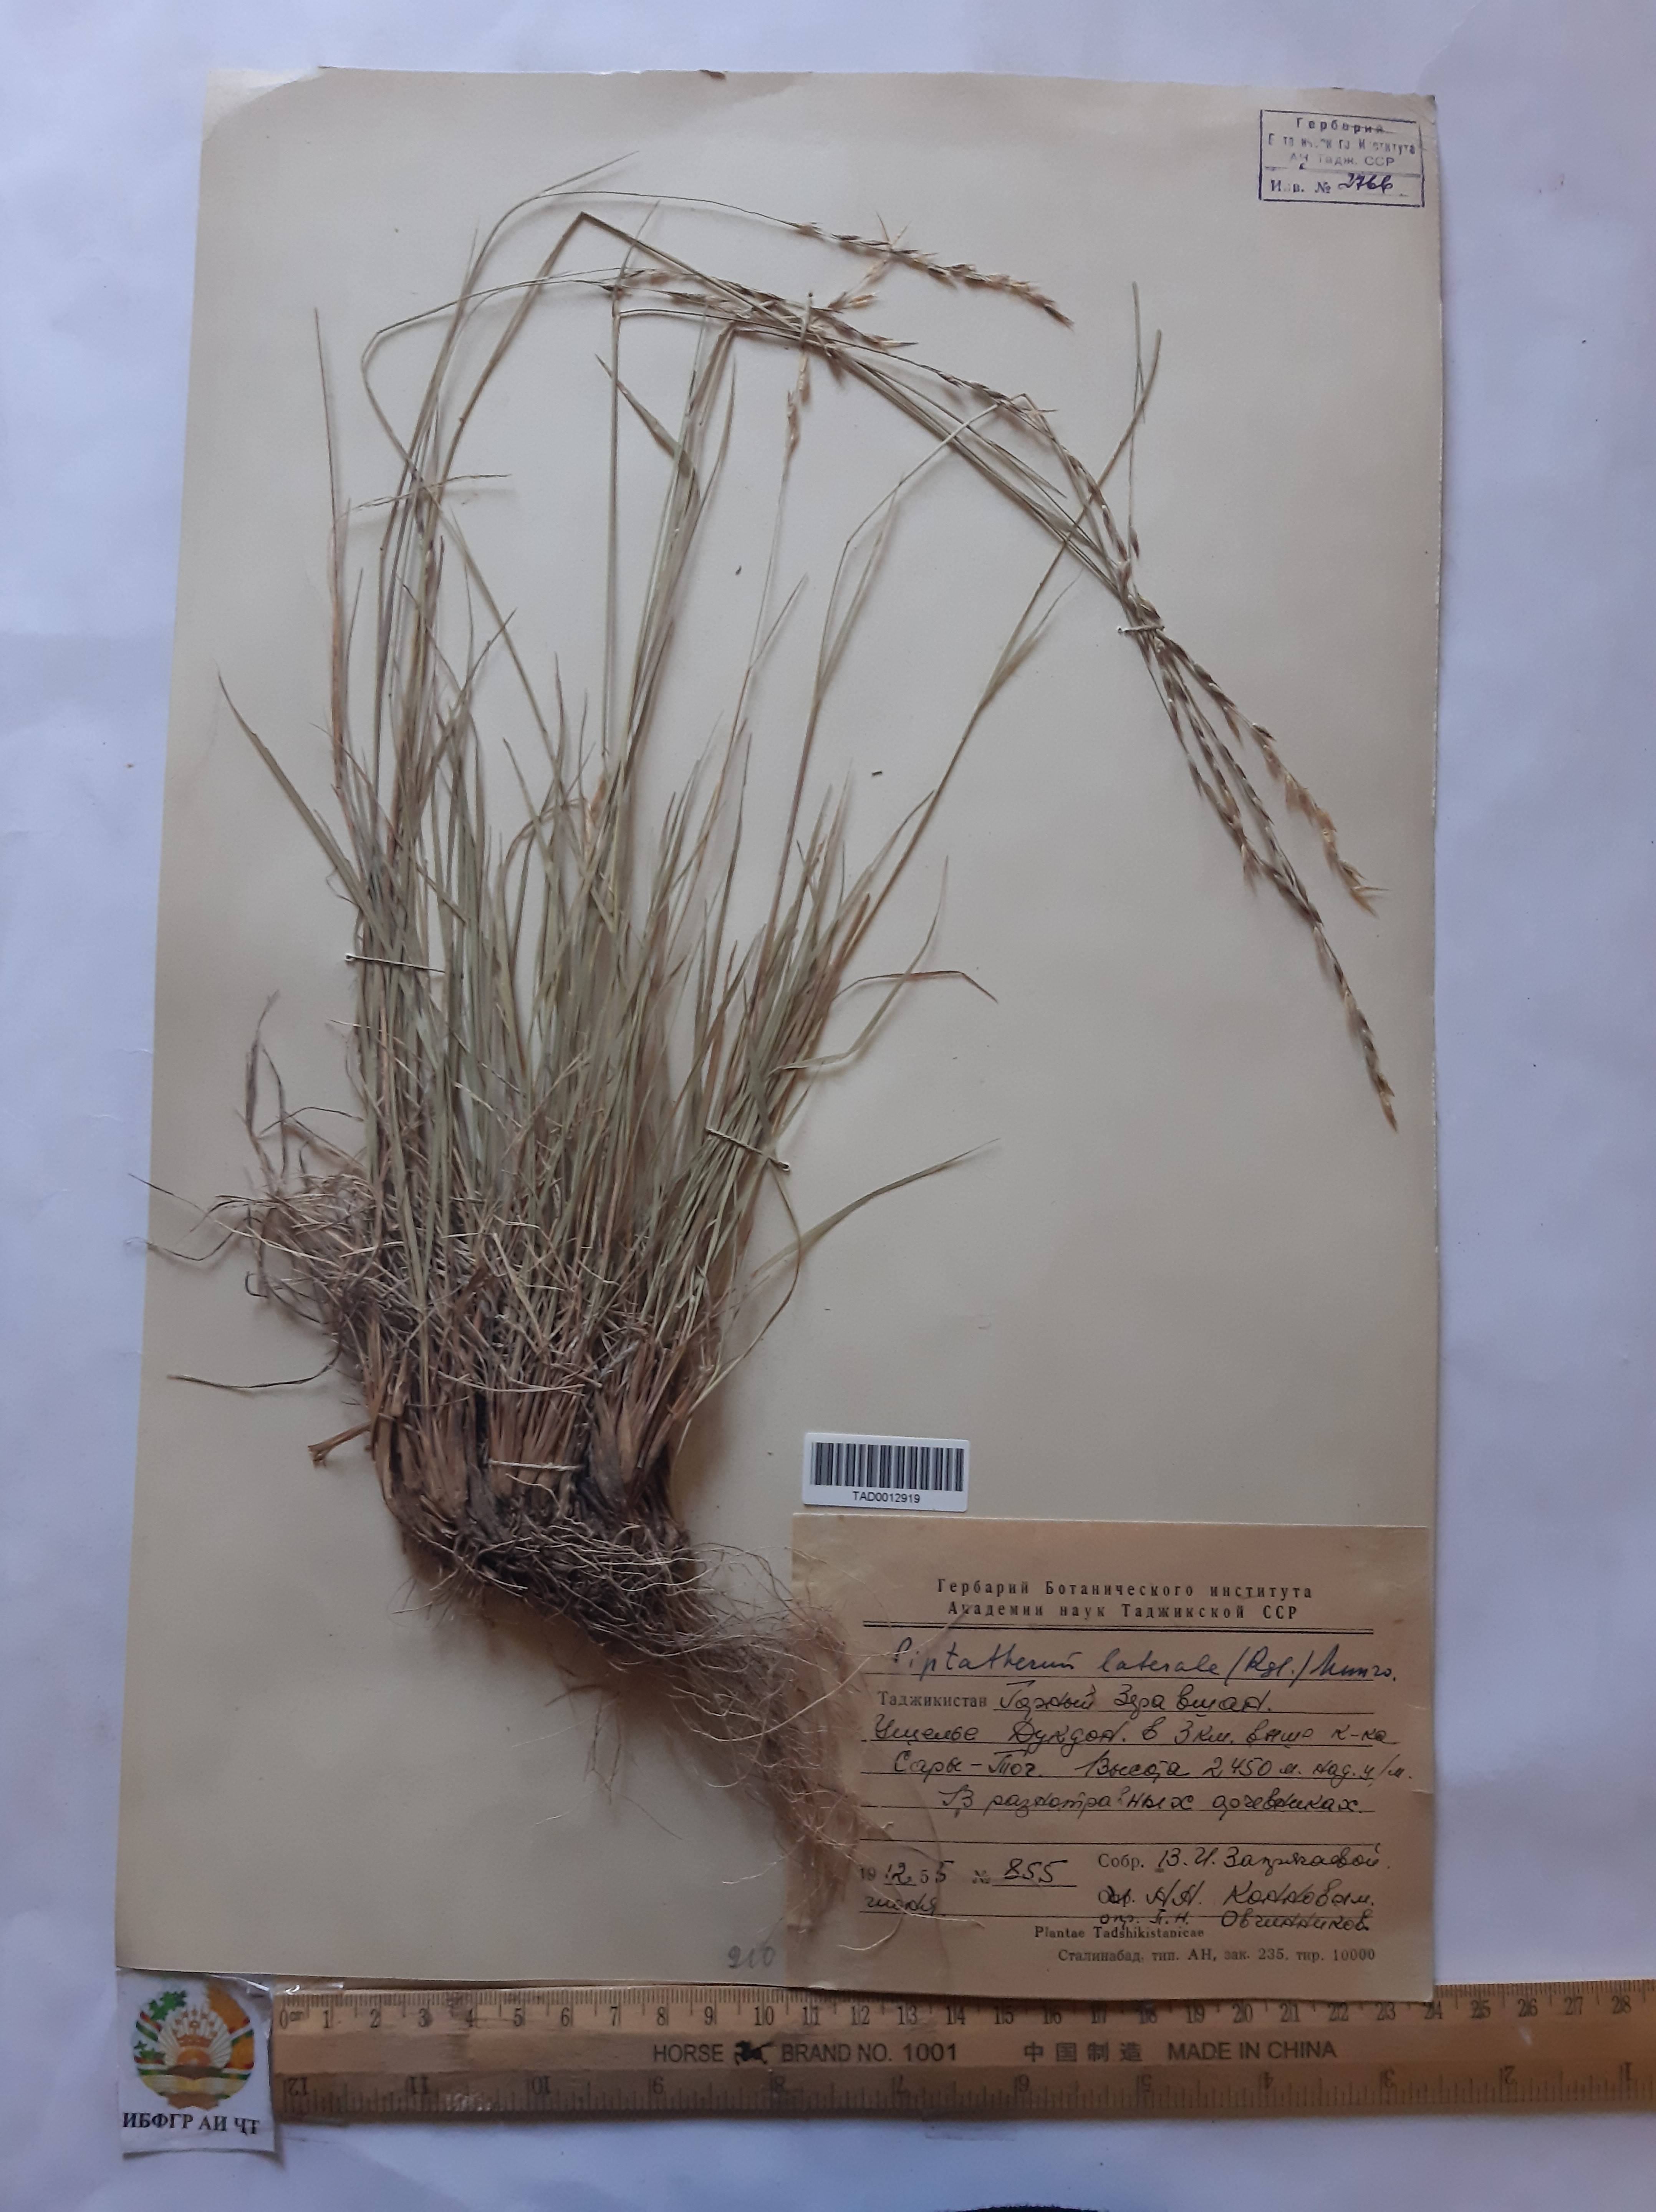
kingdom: Plantae
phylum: Tracheophyta
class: Liliopsida
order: Poales
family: Poaceae
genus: Piptatherum
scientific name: Piptatherum laterale
